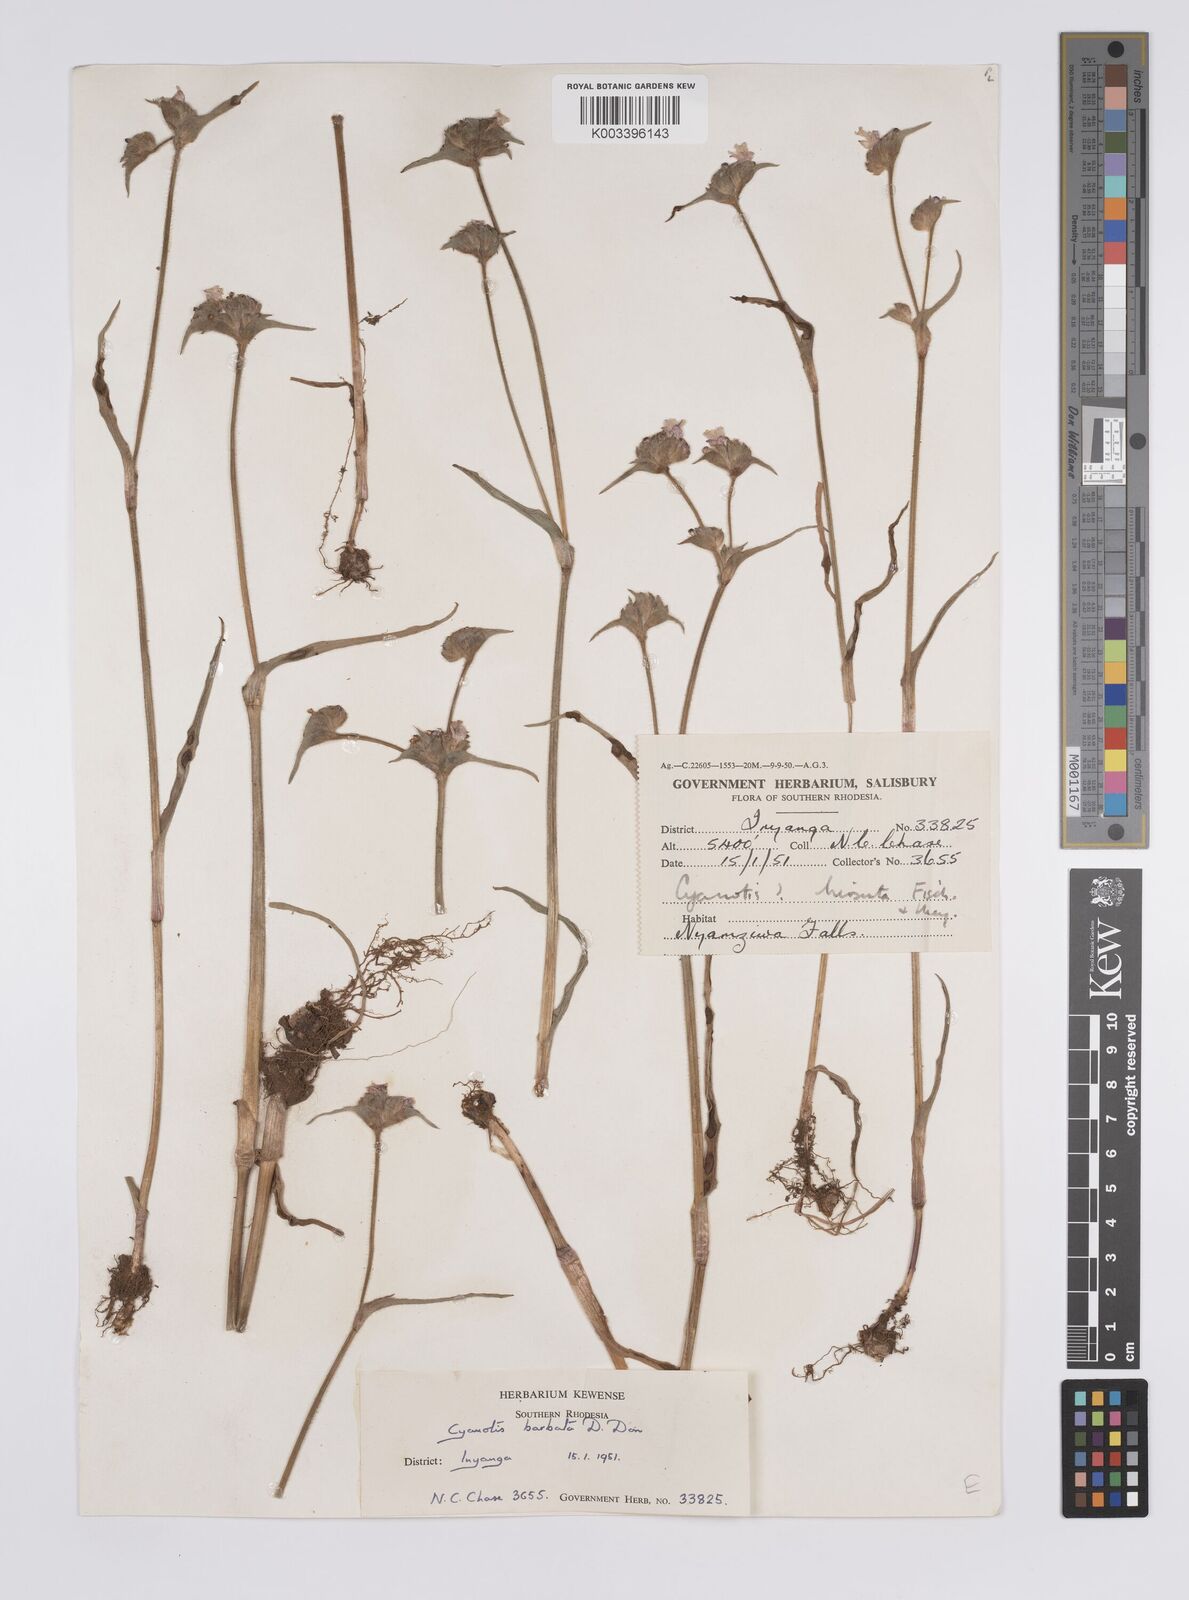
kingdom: Plantae
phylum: Tracheophyta
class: Liliopsida
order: Commelinales
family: Commelinaceae
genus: Cyanotis
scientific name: Cyanotis vaga
